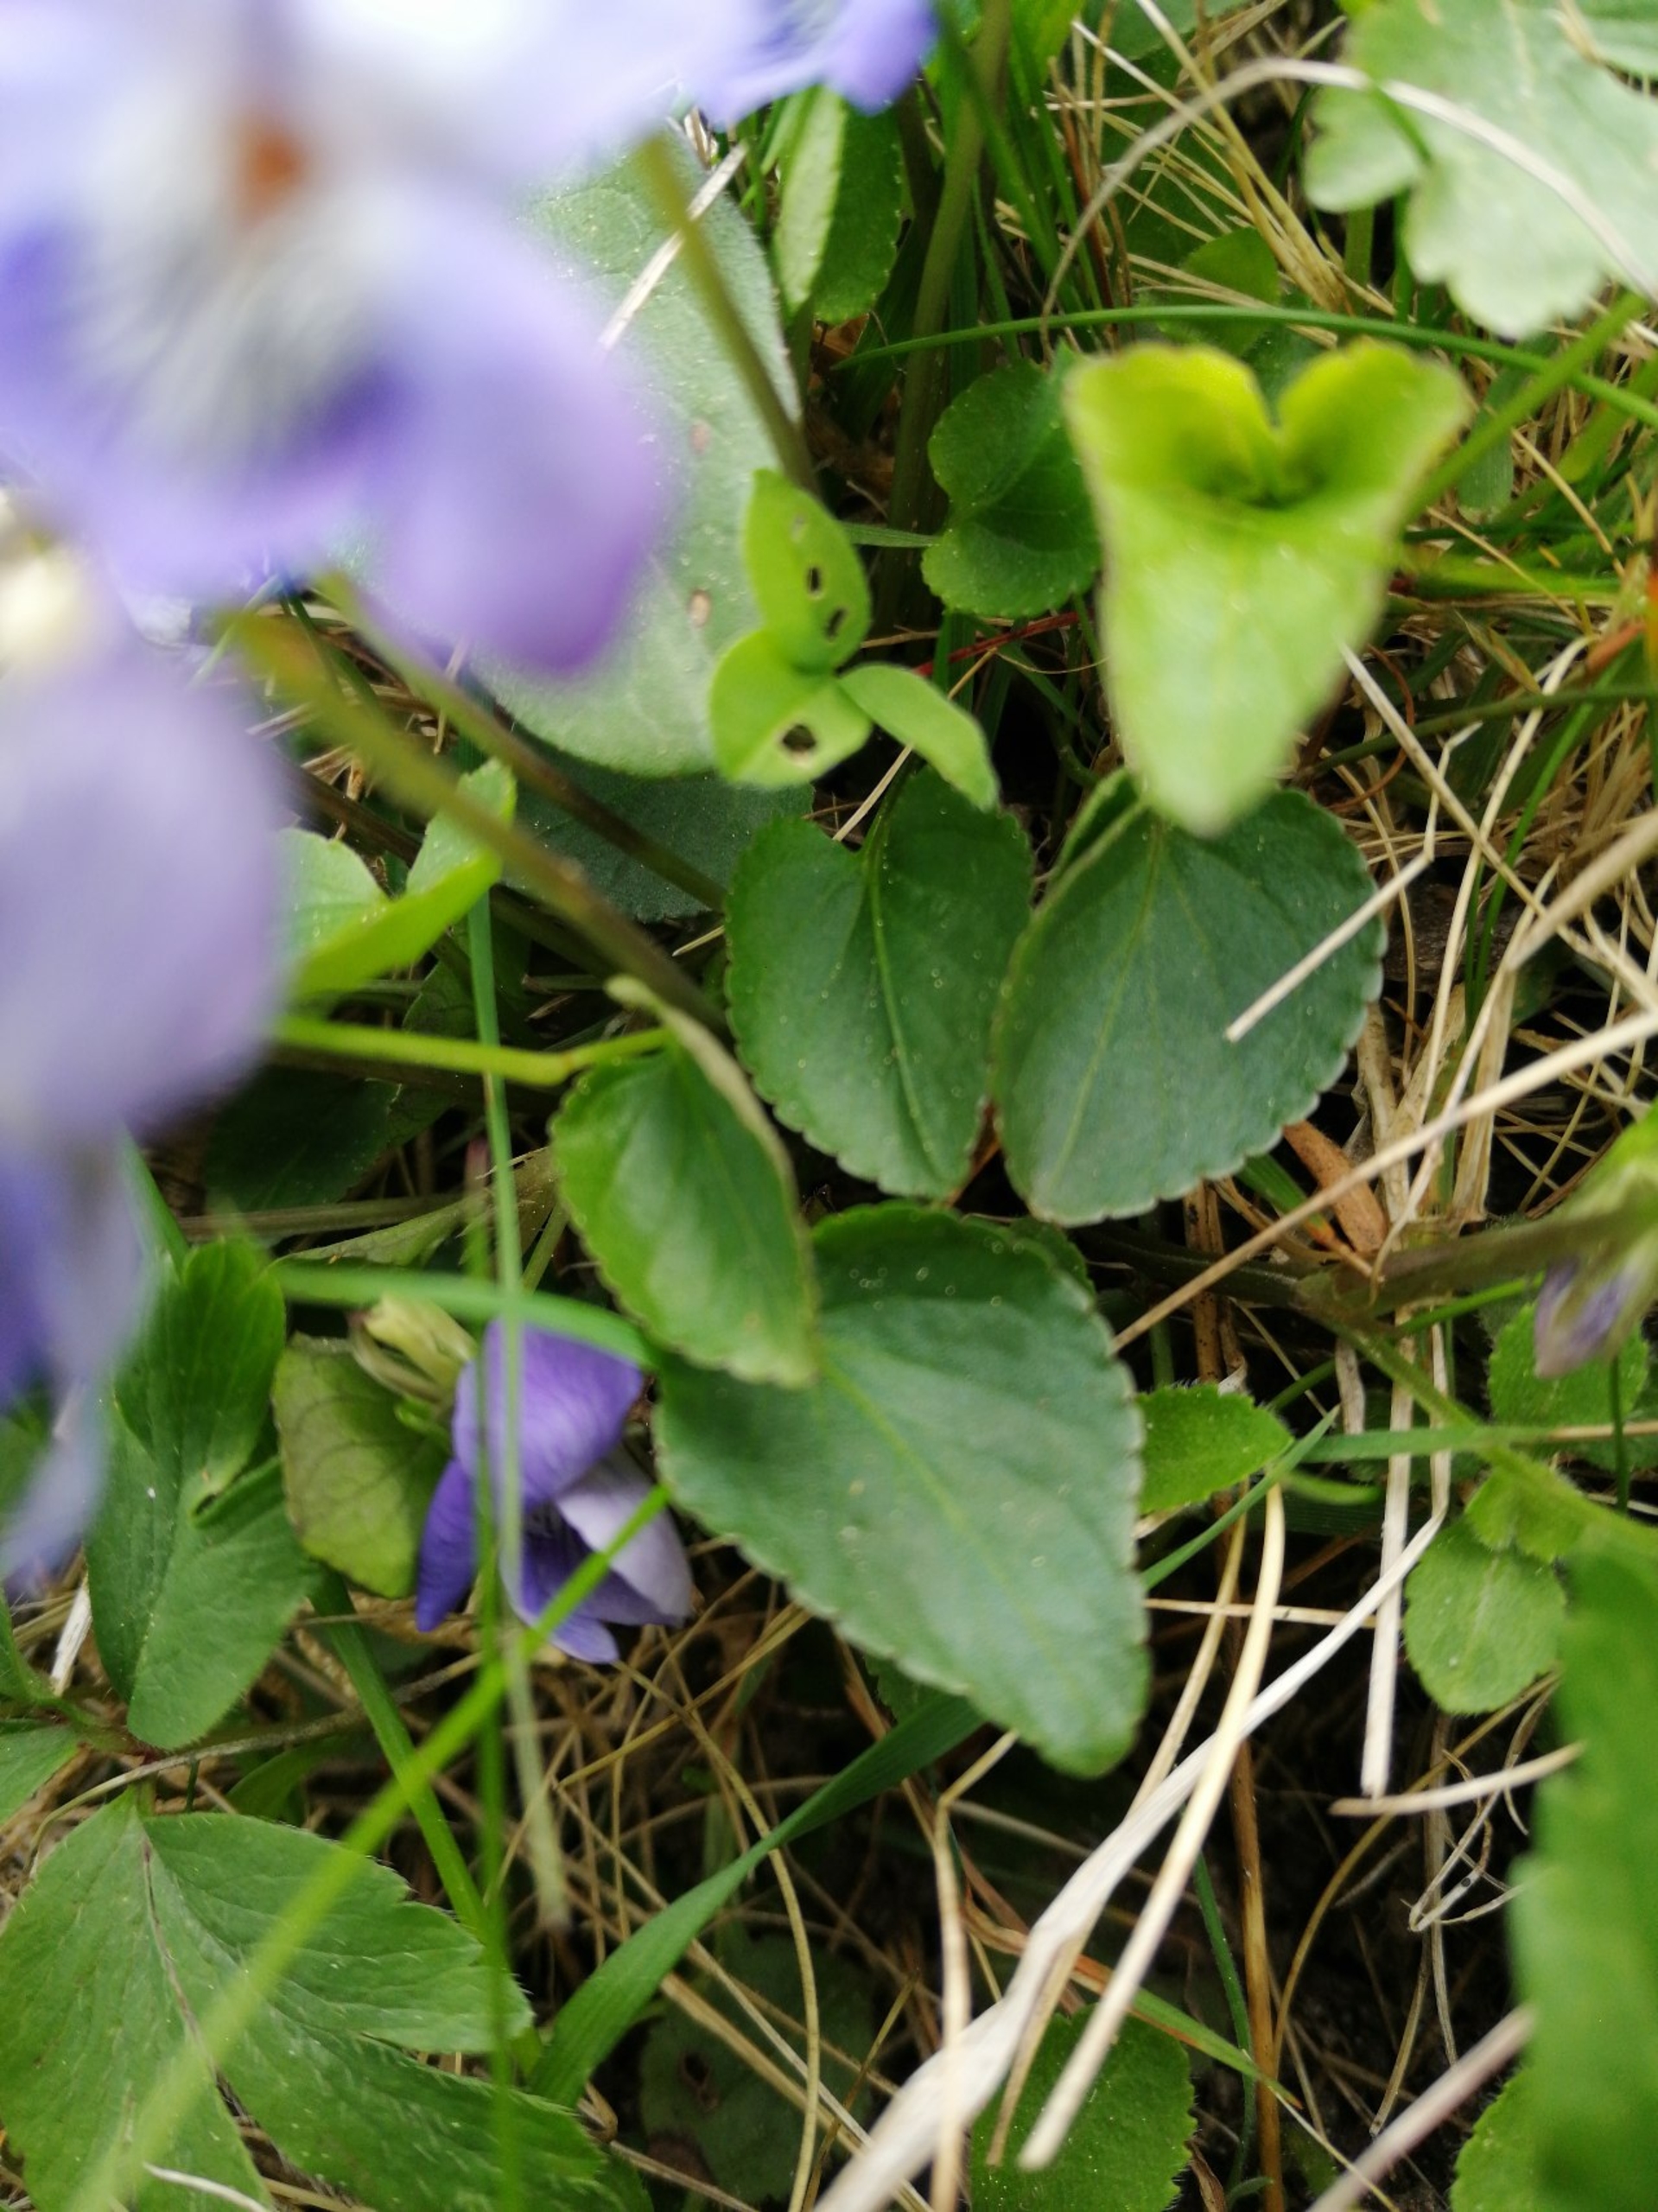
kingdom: Plantae
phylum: Tracheophyta
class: Magnoliopsida
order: Malpighiales
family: Violaceae
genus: Viola
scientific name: Viola canina
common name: Hunde-viol
